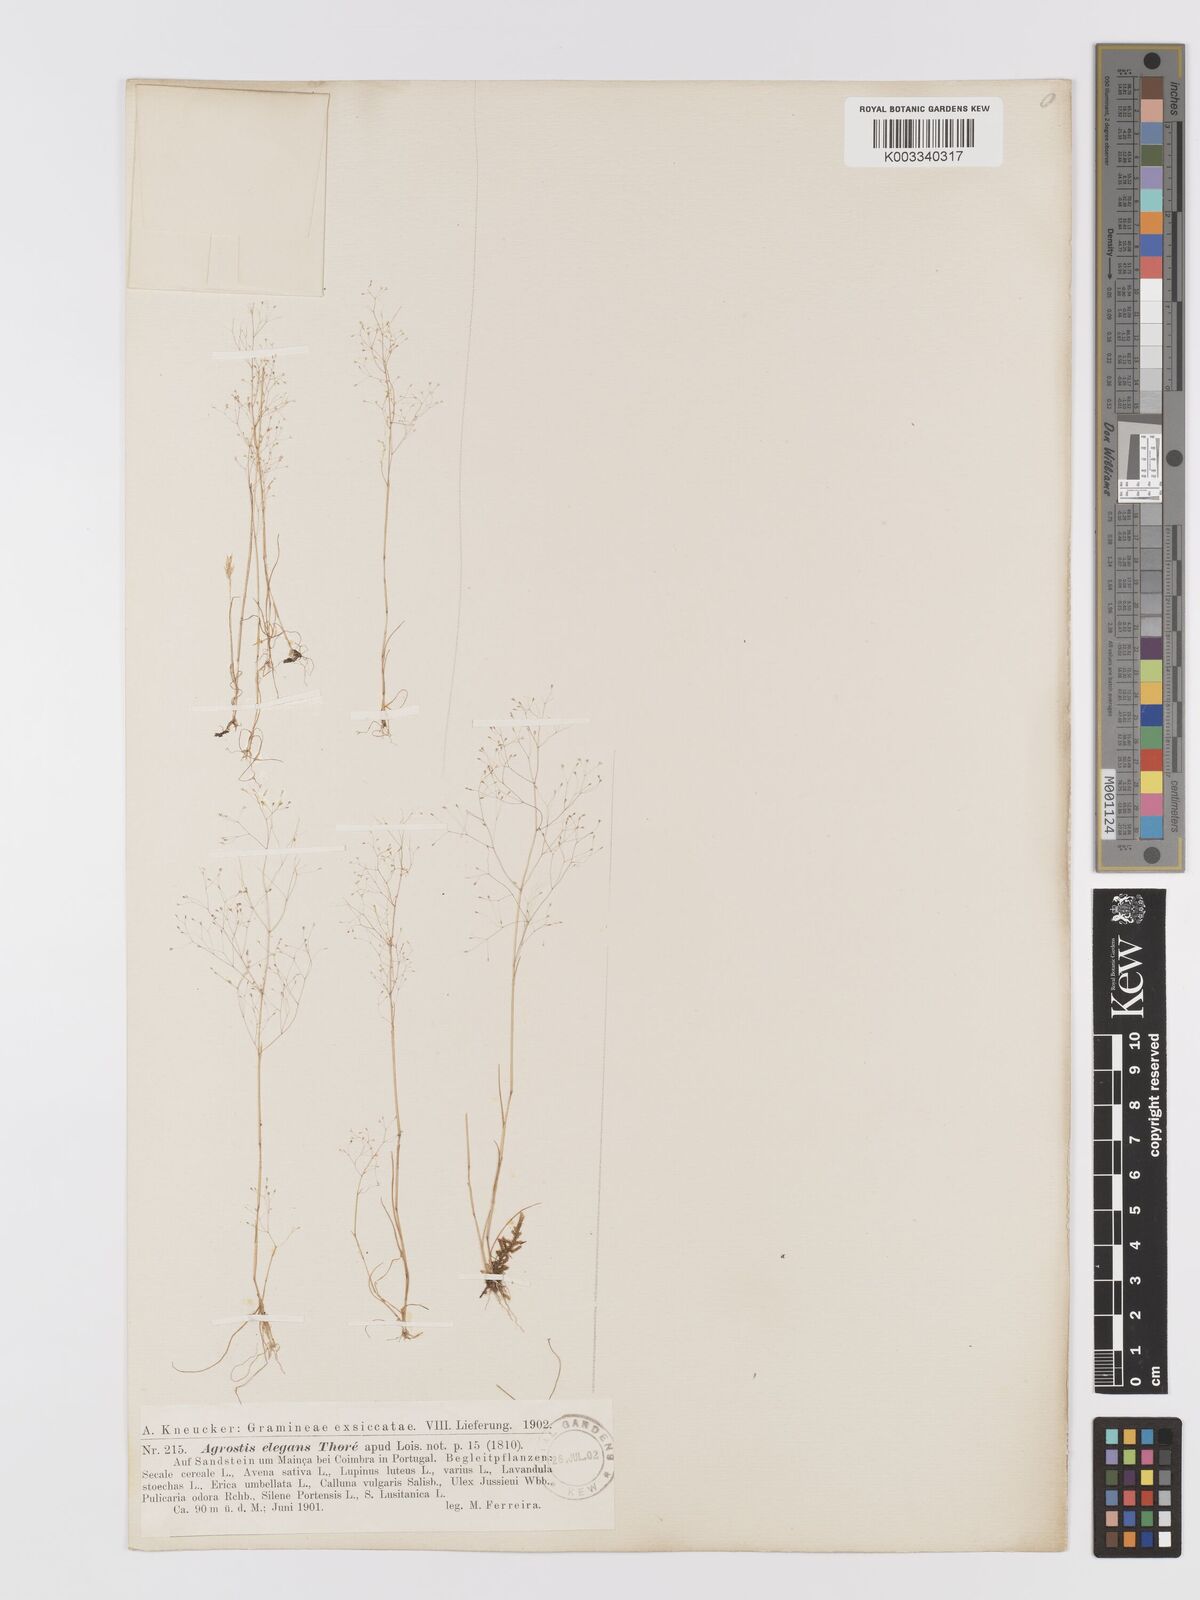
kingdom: Plantae
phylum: Tracheophyta
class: Liliopsida
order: Poales
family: Poaceae
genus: Agrostis
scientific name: Agrostis tenerrima
